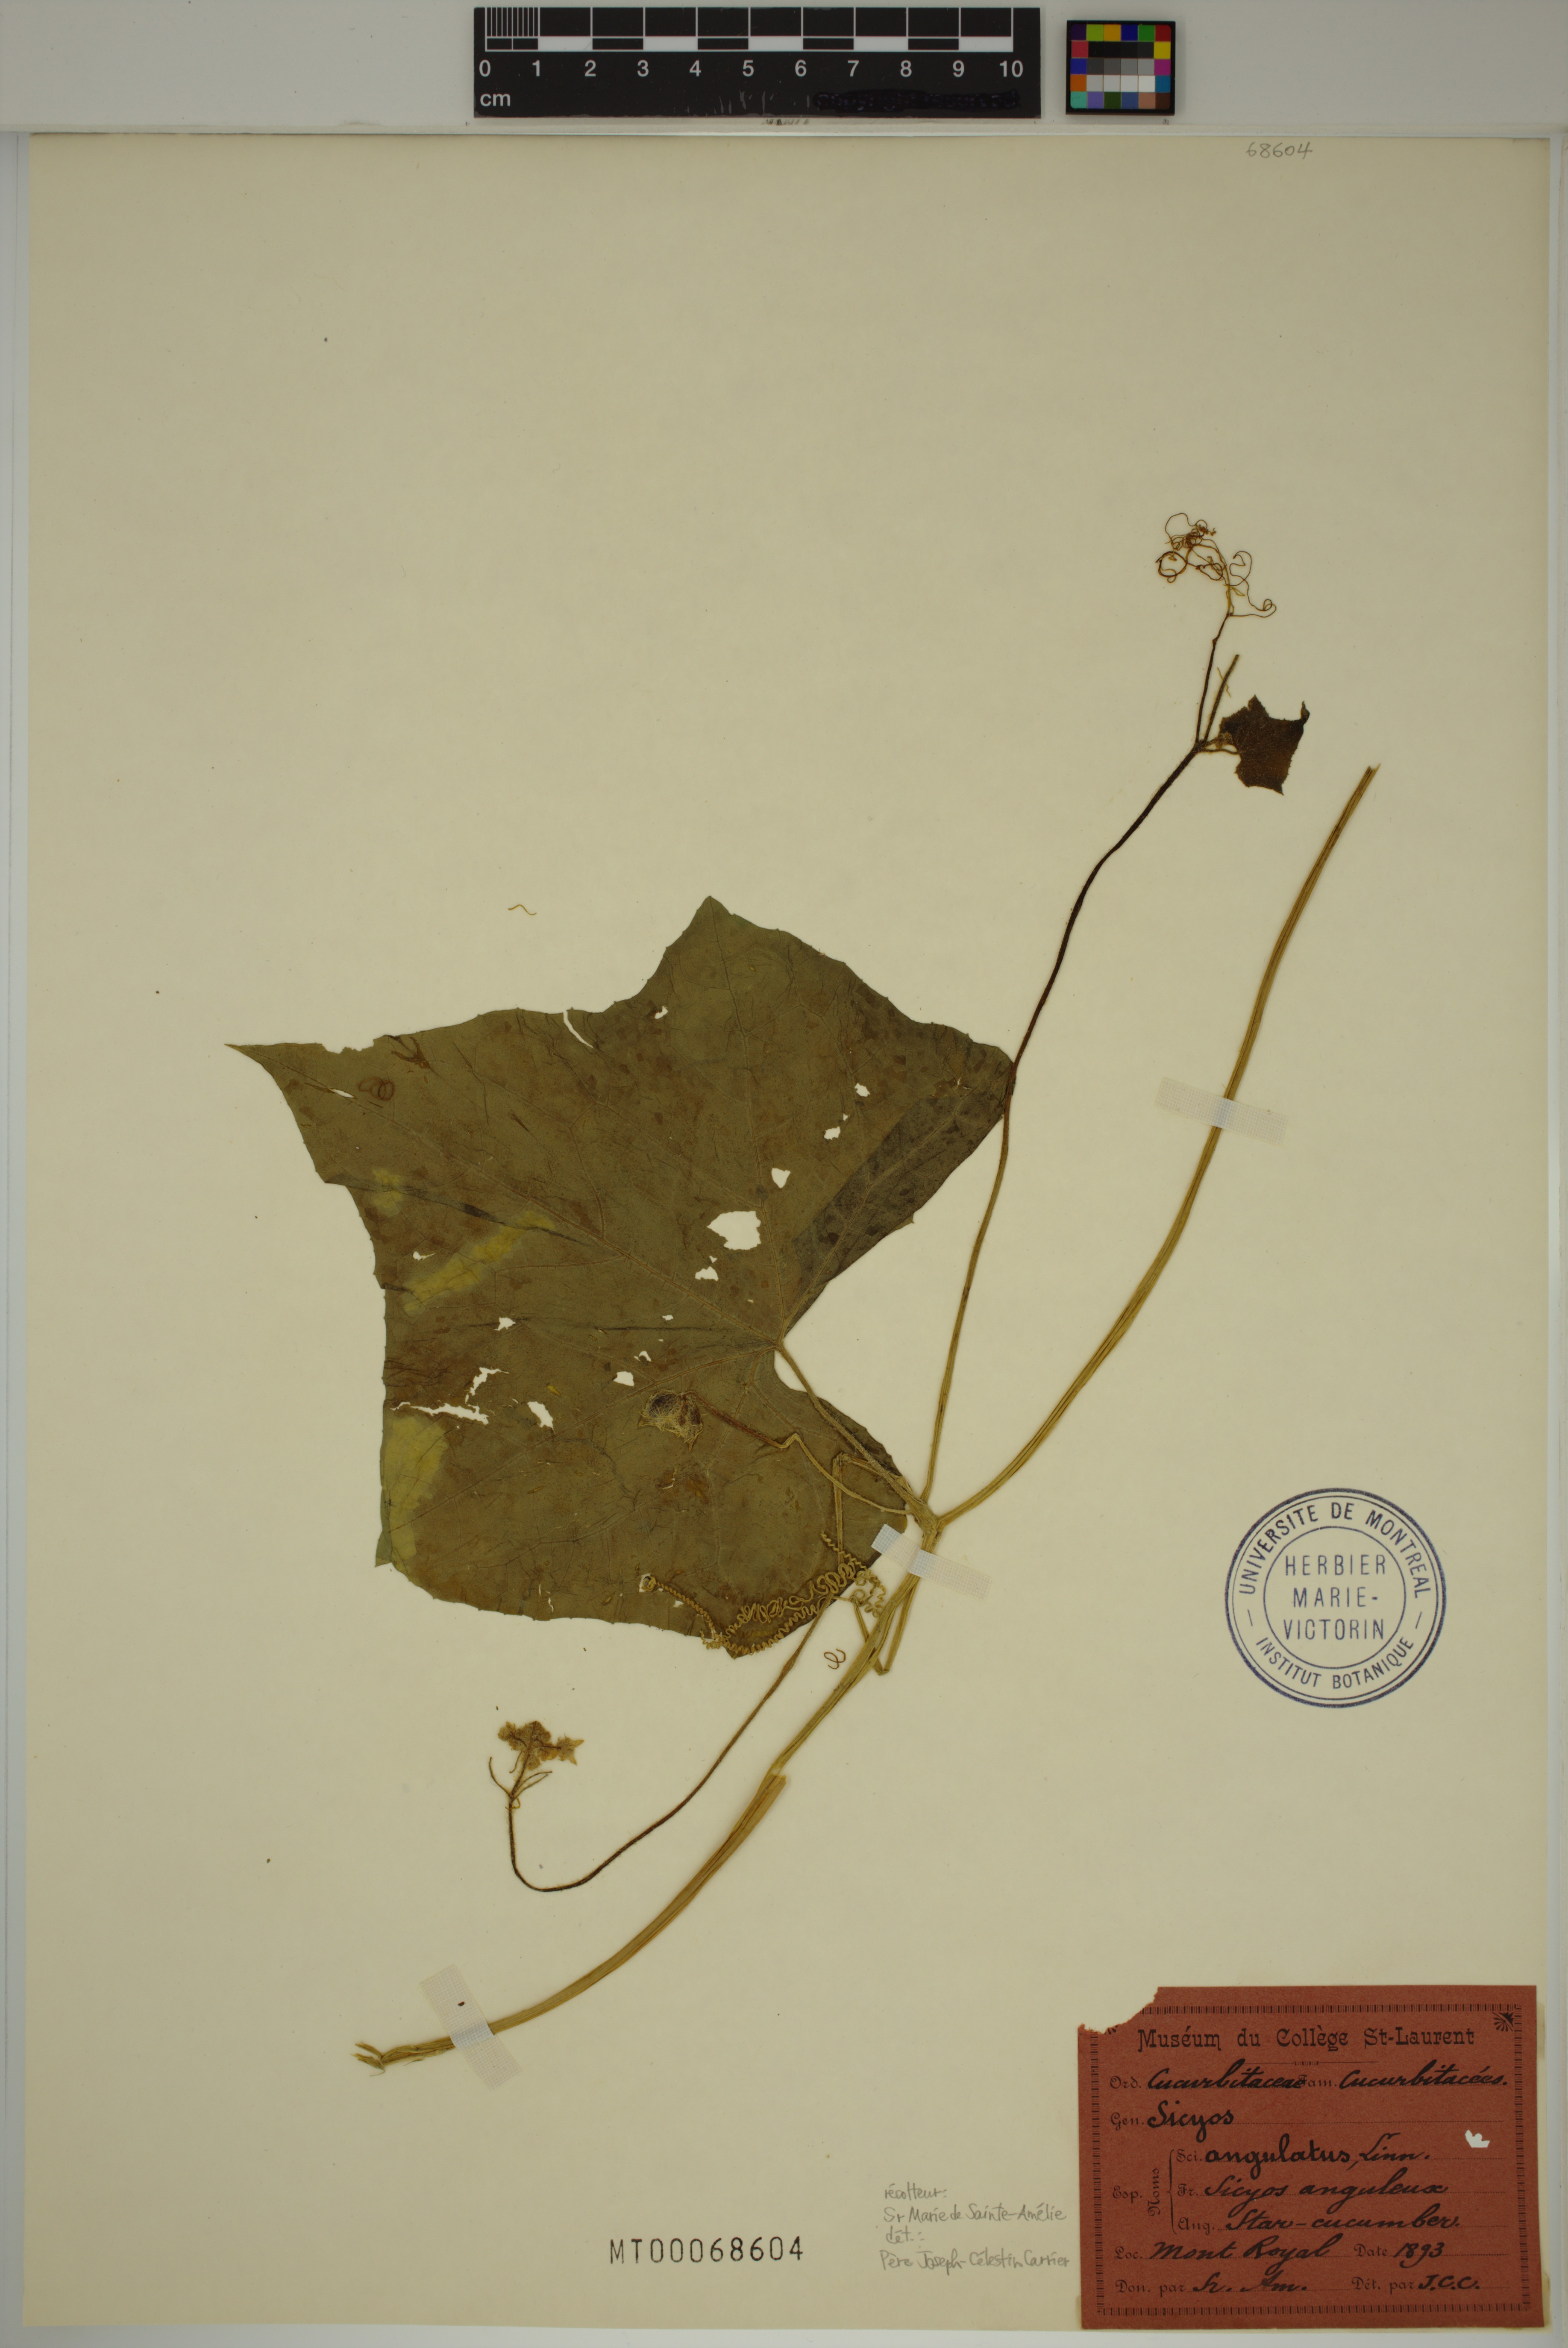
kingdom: Plantae
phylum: Tracheophyta
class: Magnoliopsida
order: Cucurbitales
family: Cucurbitaceae
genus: Sicyos
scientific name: Sicyos angulatus
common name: Angled burr cucumber
